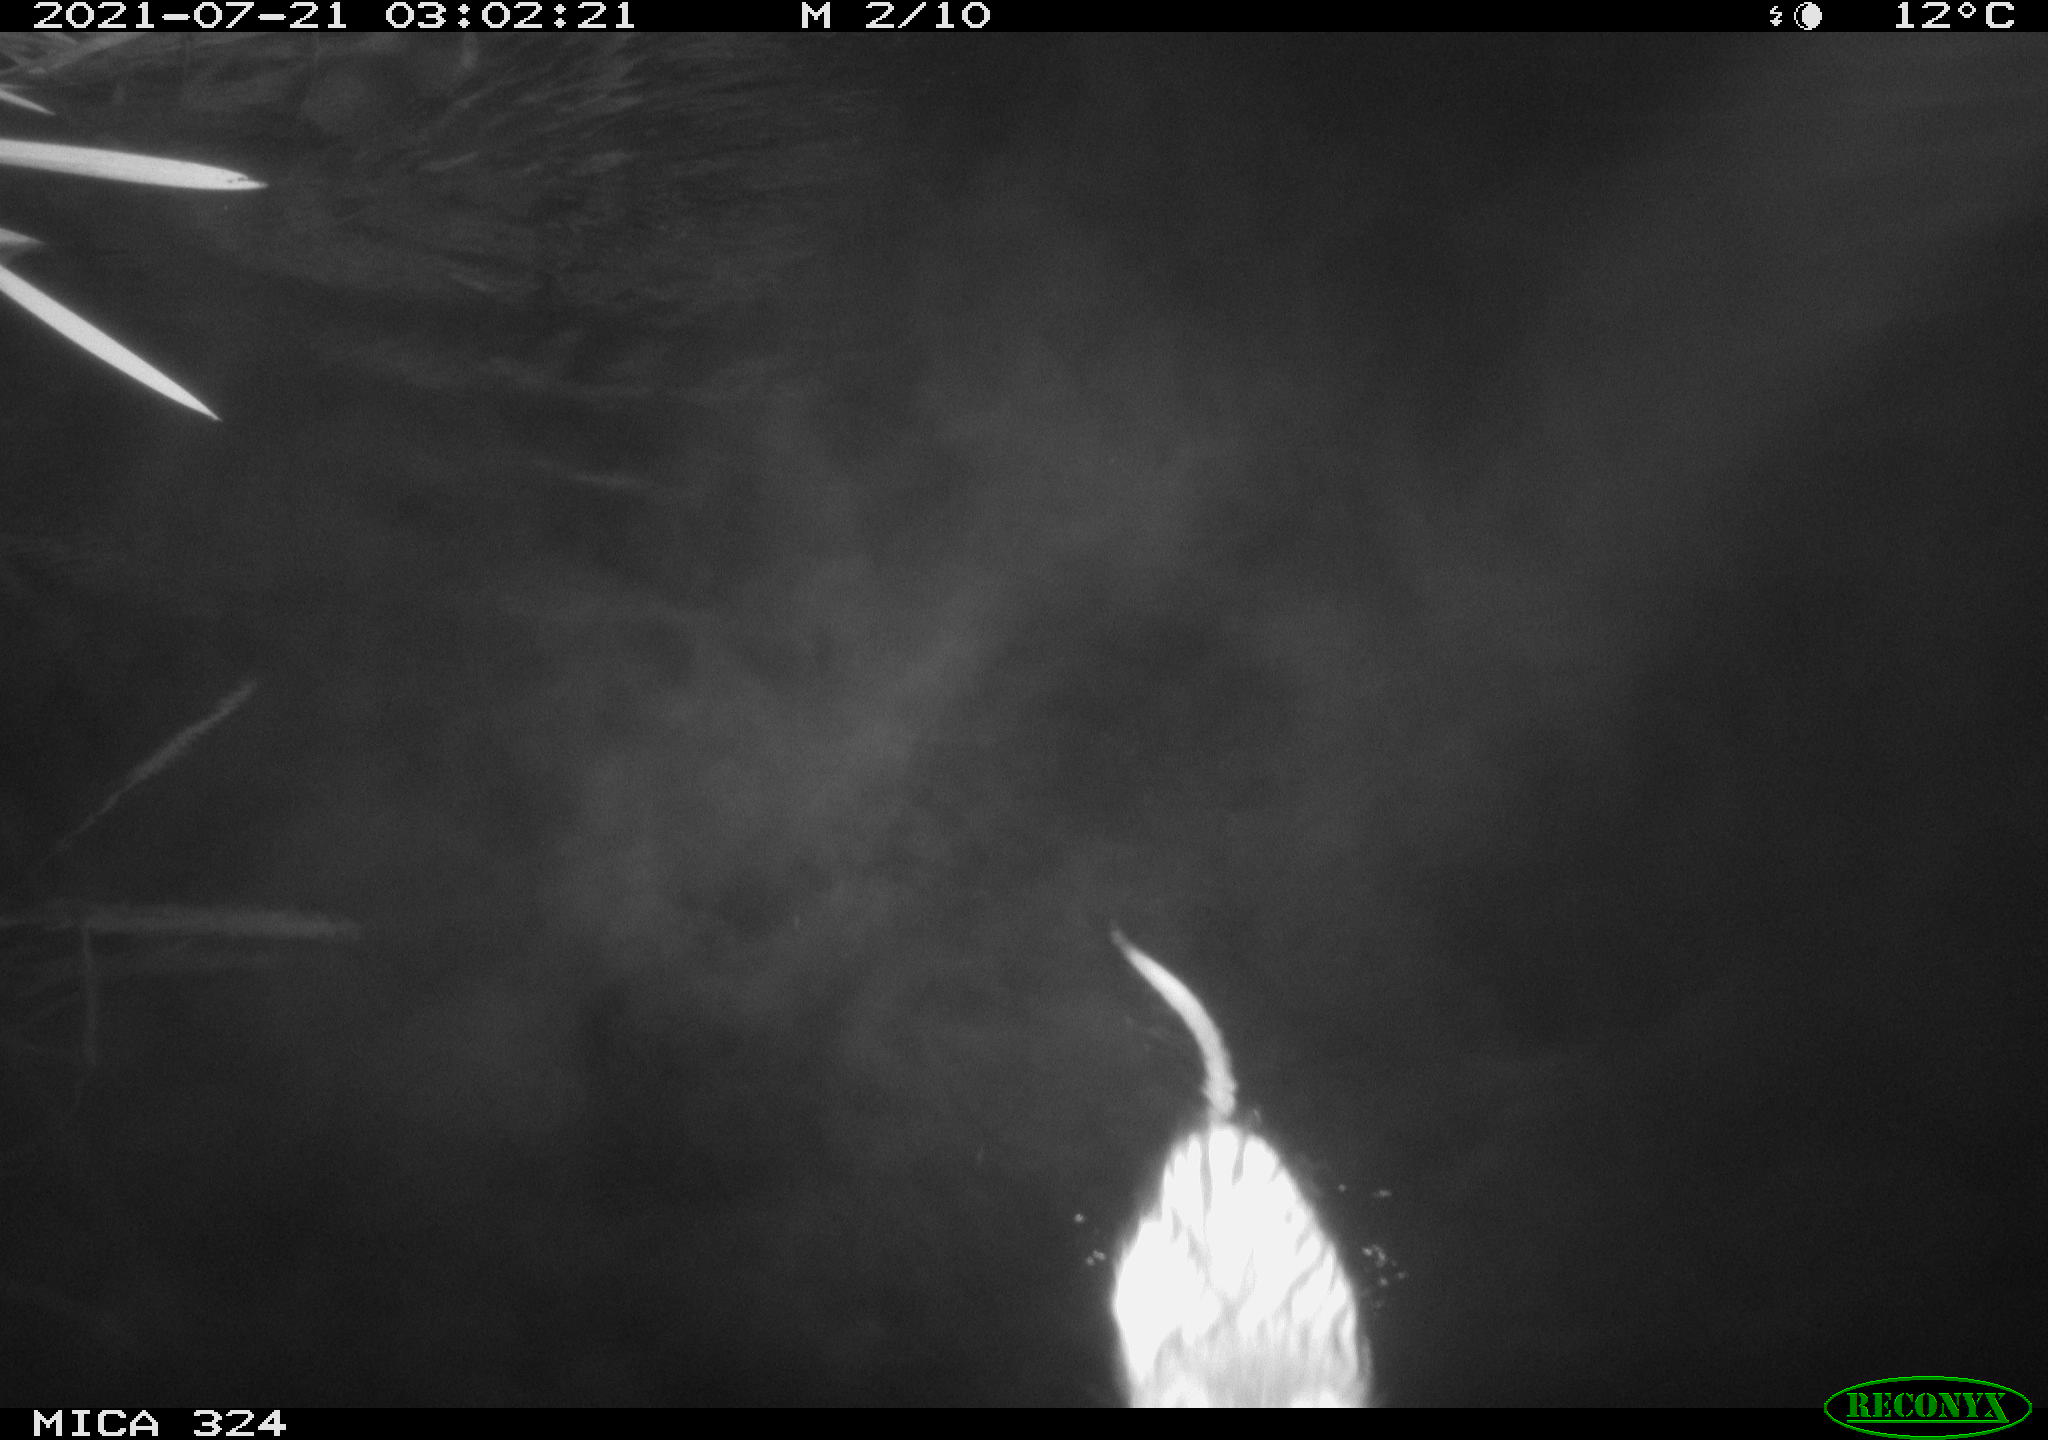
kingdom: Animalia
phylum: Chordata
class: Mammalia
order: Rodentia
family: Cricetidae
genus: Ondatra
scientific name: Ondatra zibethicus
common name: Muskrat
